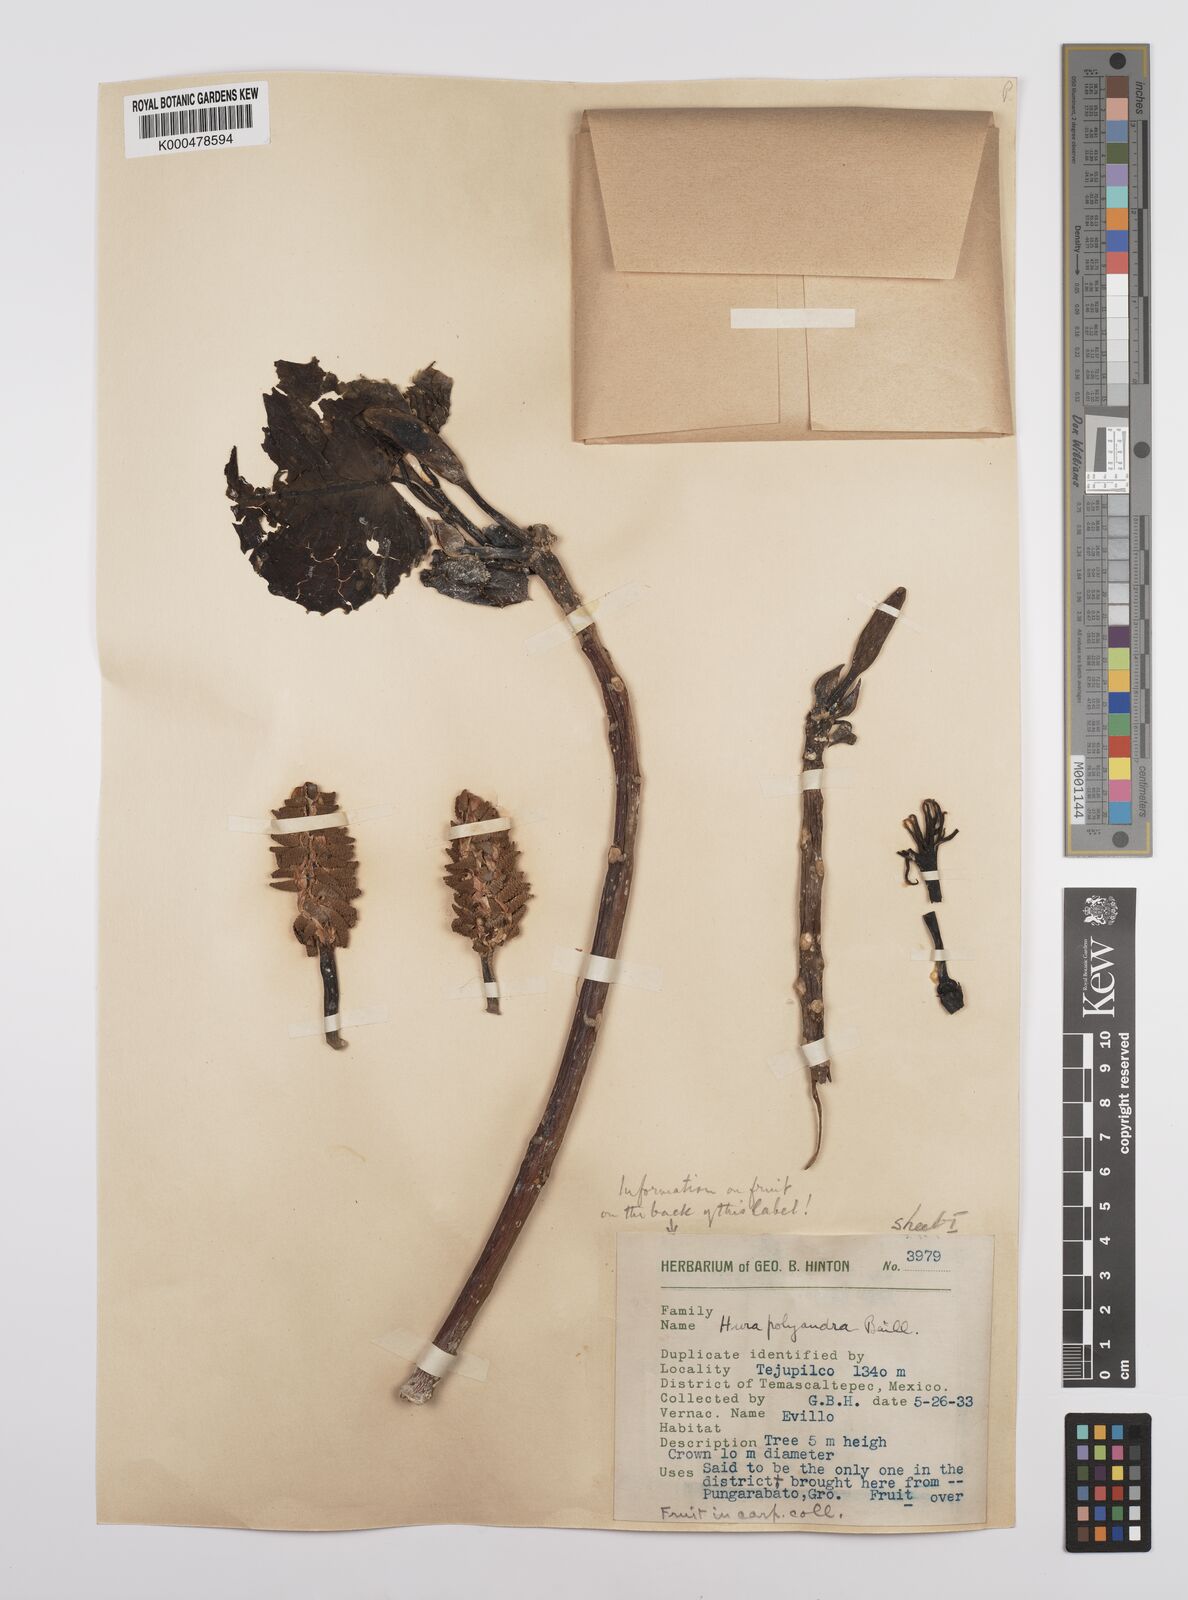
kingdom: Plantae
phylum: Tracheophyta
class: Magnoliopsida
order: Malpighiales
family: Euphorbiaceae
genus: Hura
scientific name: Hura polyandra
